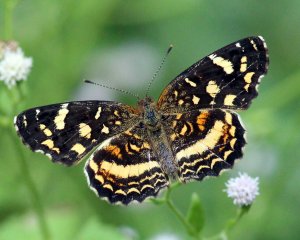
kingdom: Animalia
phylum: Arthropoda
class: Insecta
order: Lepidoptera
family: Nymphalidae
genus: Anthanassa
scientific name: Anthanassa tulcis
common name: Pale-banded Crescent
